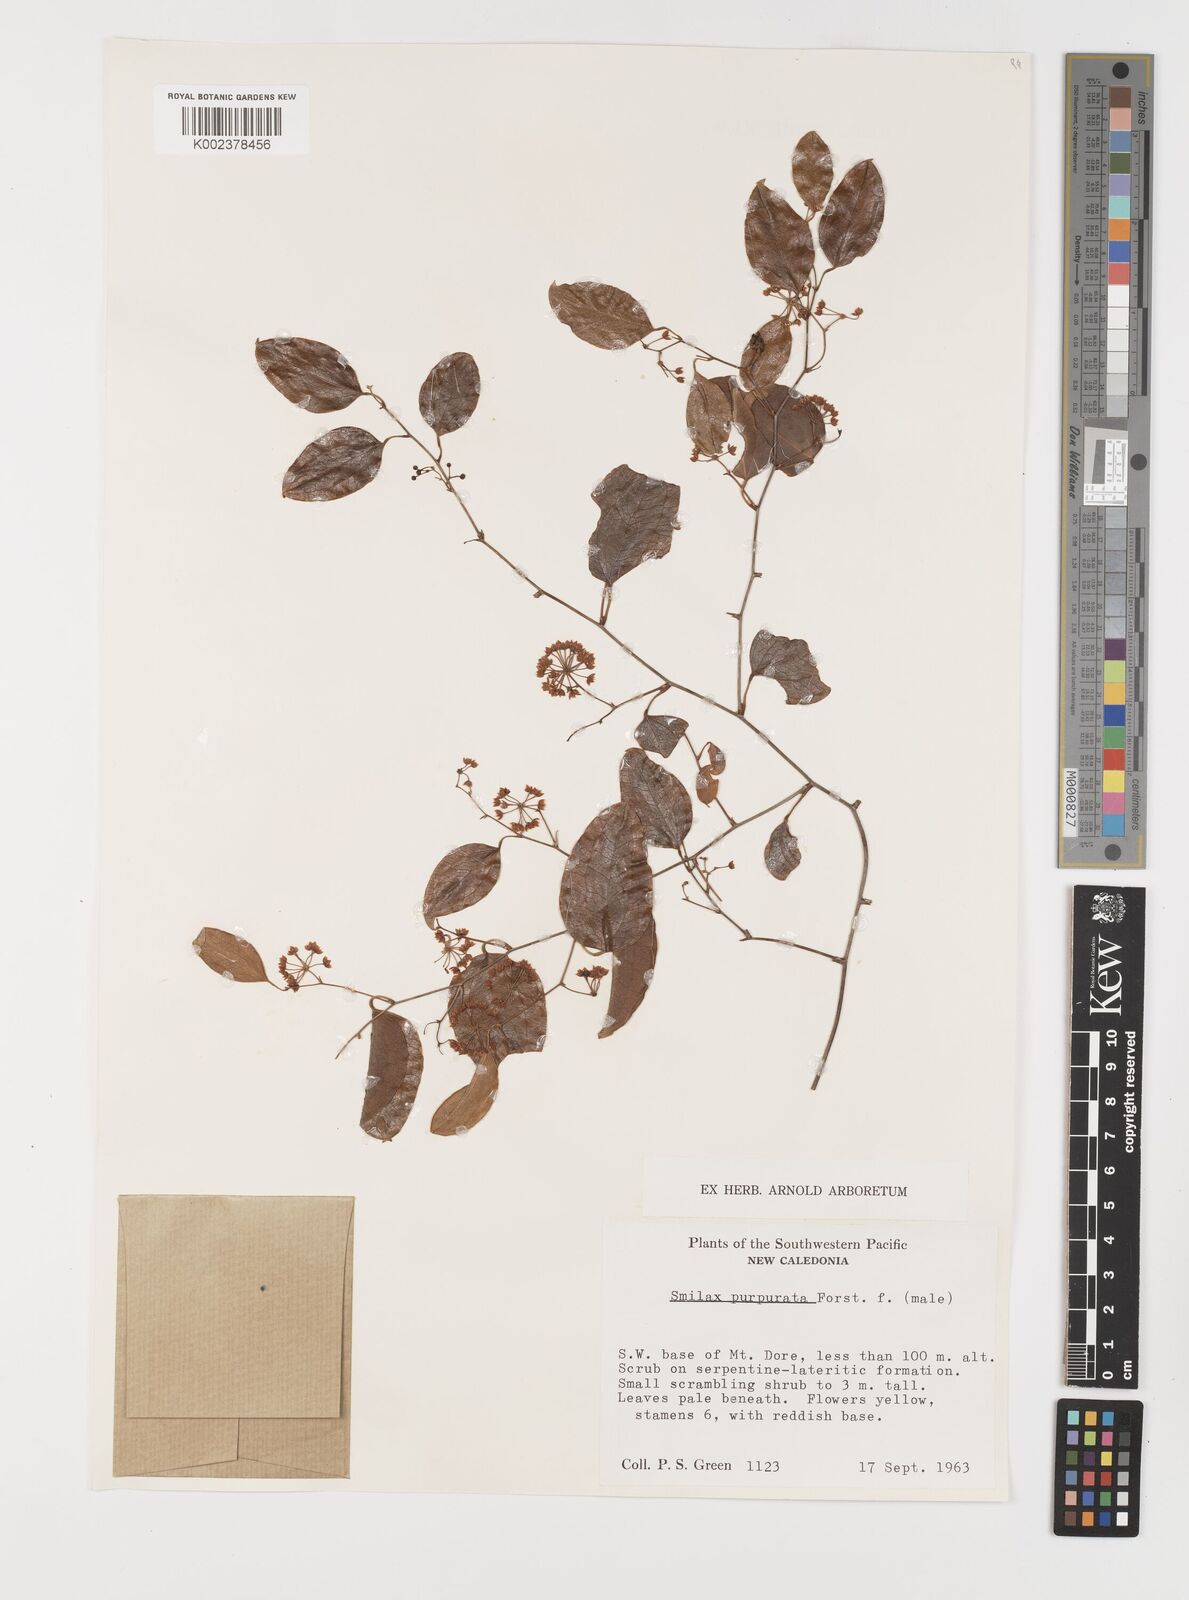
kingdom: Plantae
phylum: Tracheophyta
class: Liliopsida
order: Liliales
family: Smilacaceae
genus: Smilax
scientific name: Smilax purpurata
